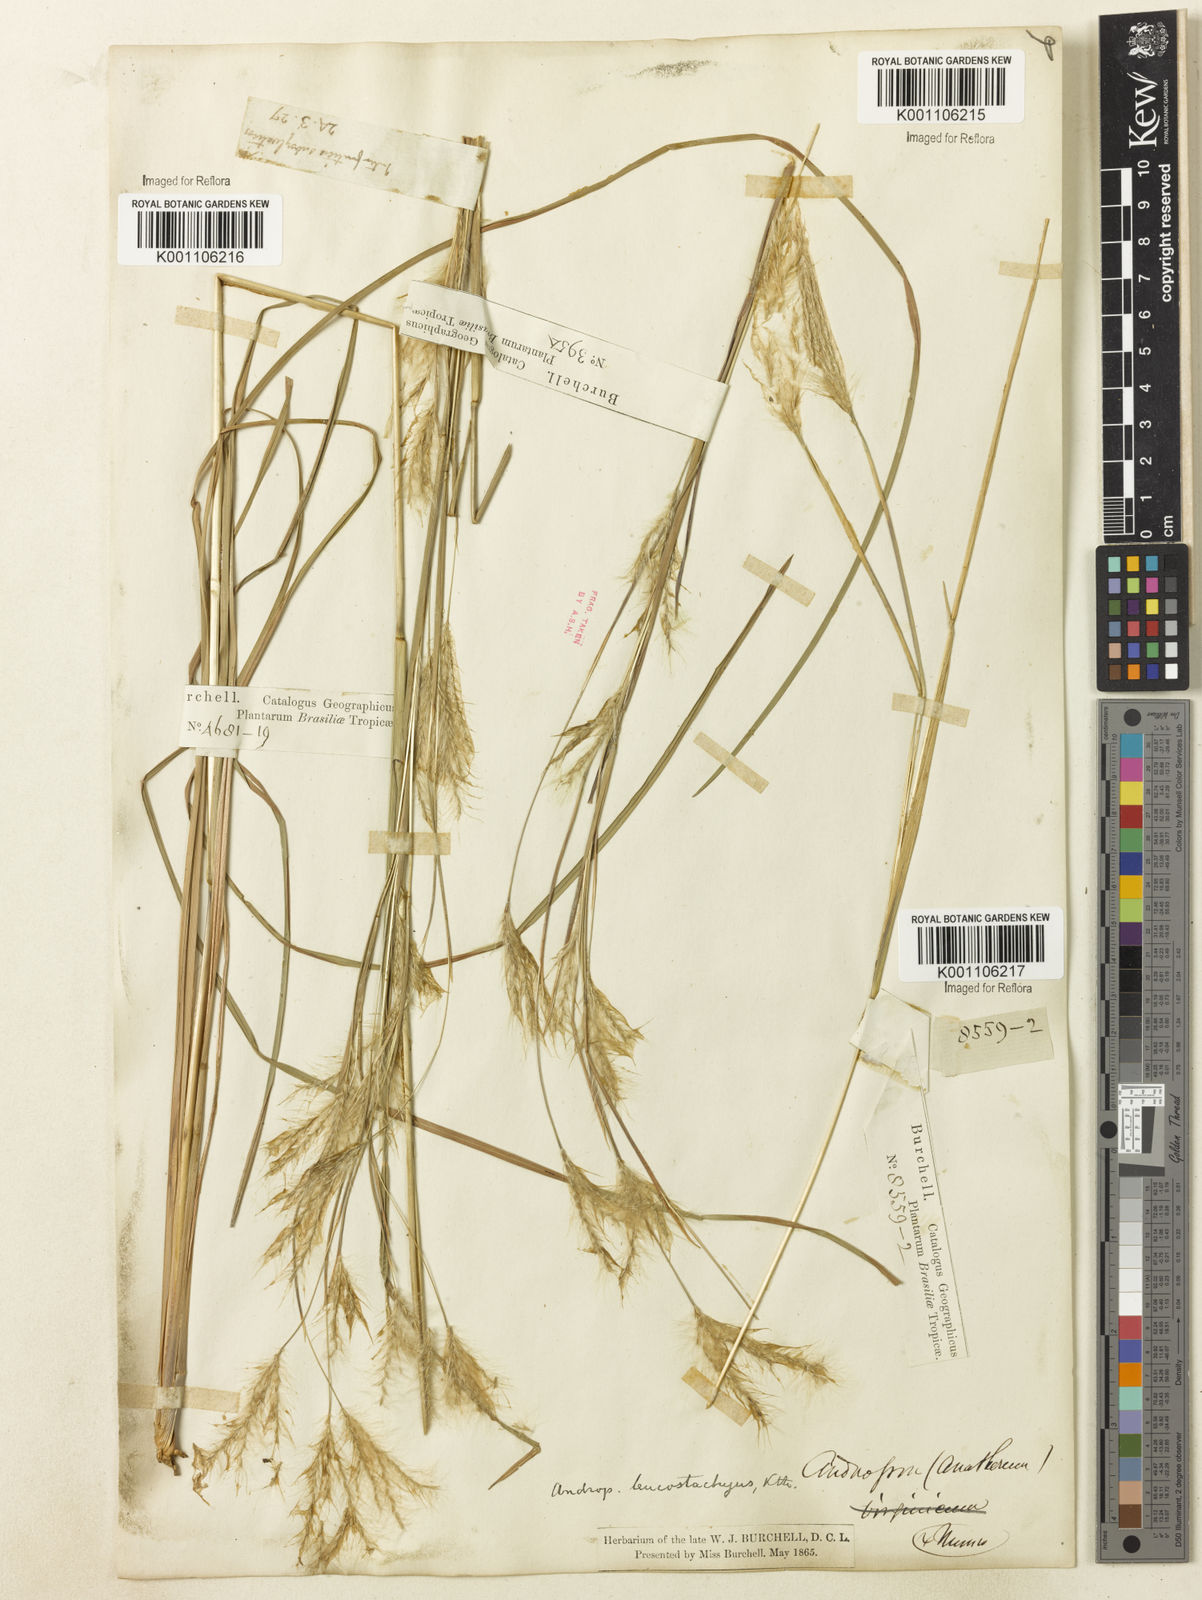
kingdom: Plantae
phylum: Tracheophyta
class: Liliopsida
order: Poales
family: Poaceae
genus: Andropogon
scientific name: Andropogon leucostachyus
